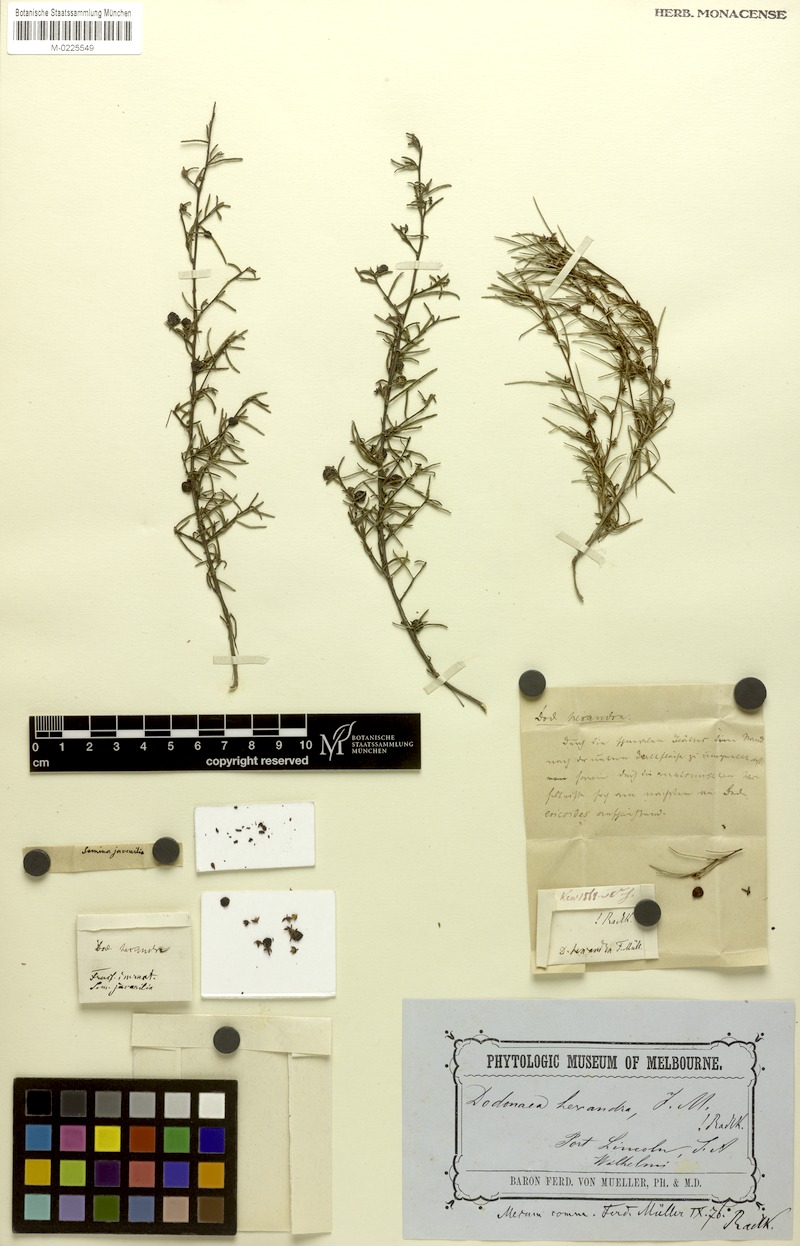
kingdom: Plantae
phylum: Tracheophyta
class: Magnoliopsida
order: Sapindales
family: Sapindaceae
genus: Dodonaea
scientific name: Dodonaea hexandra
